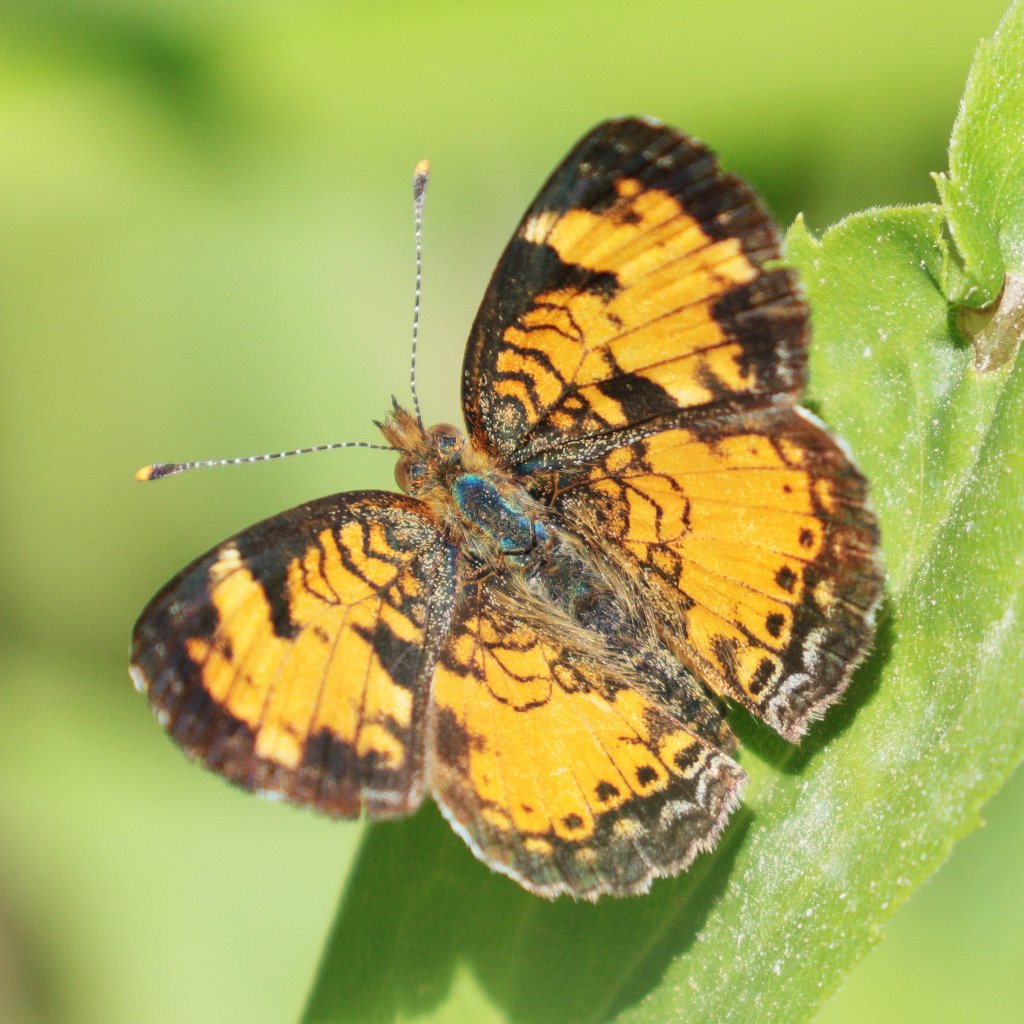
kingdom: Animalia
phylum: Arthropoda
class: Insecta
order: Lepidoptera
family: Nymphalidae
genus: Phyciodes
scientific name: Phyciodes tharos
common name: Northern Crescent
